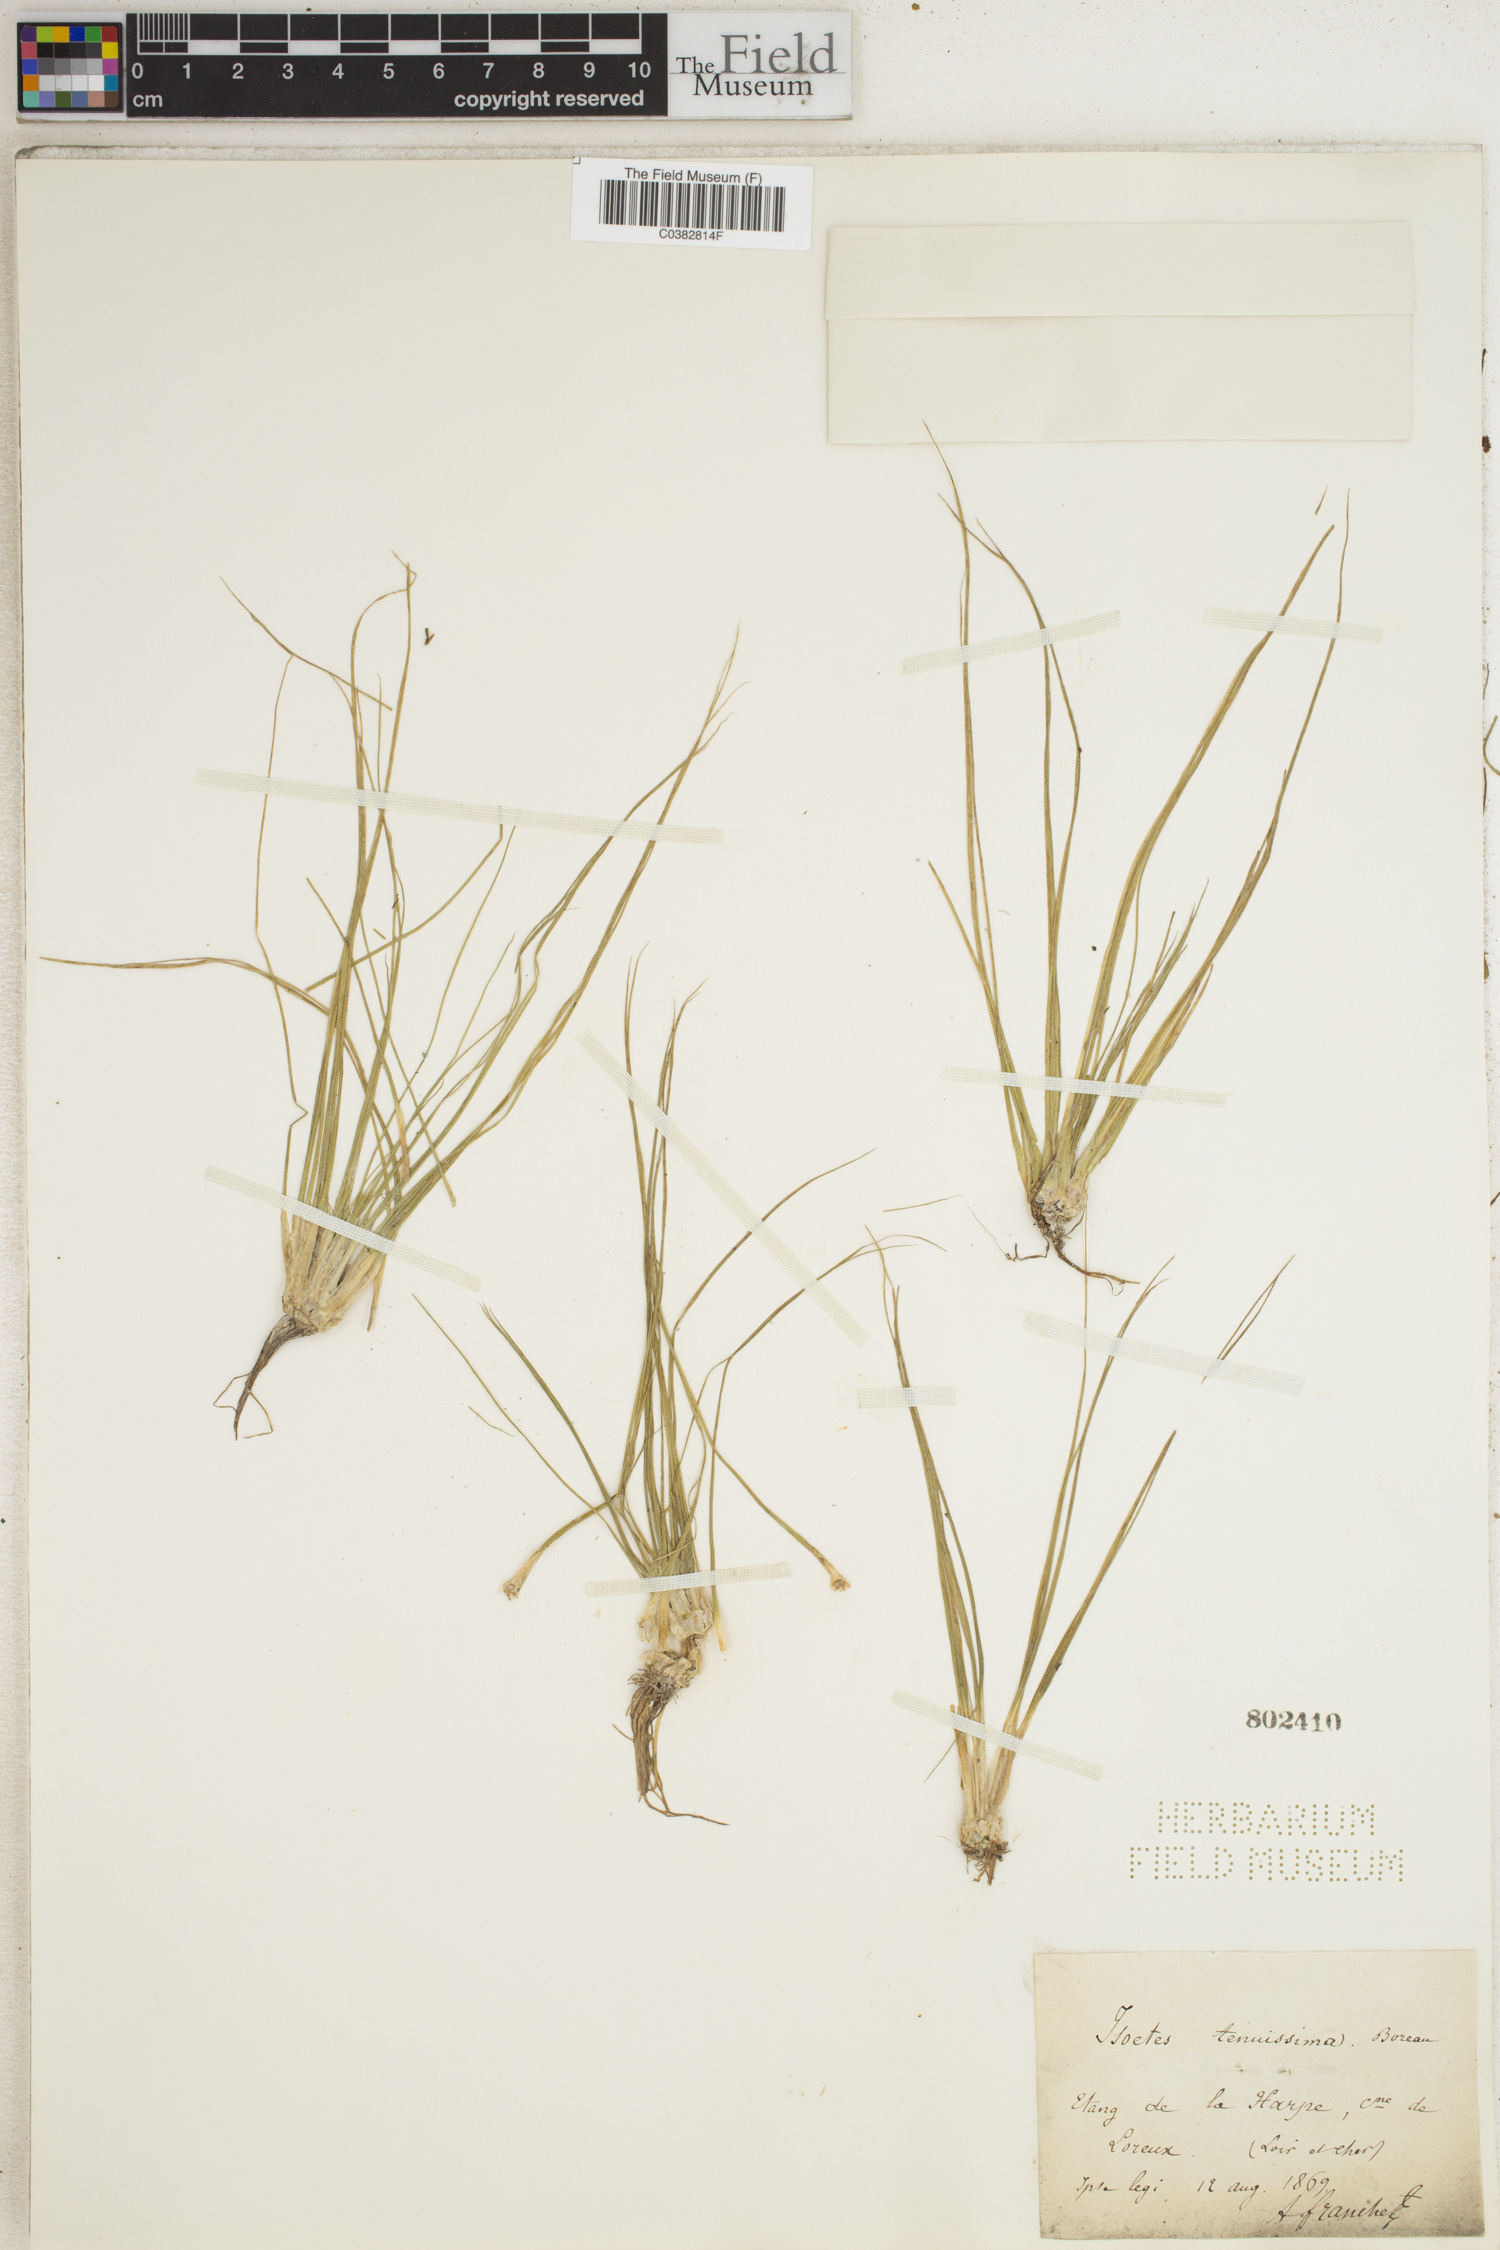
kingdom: Plantae
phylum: Tracheophyta
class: Lycopodiopsida
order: Isoetales
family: Isoetaceae
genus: Isoetes
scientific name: Isoetes longissima
